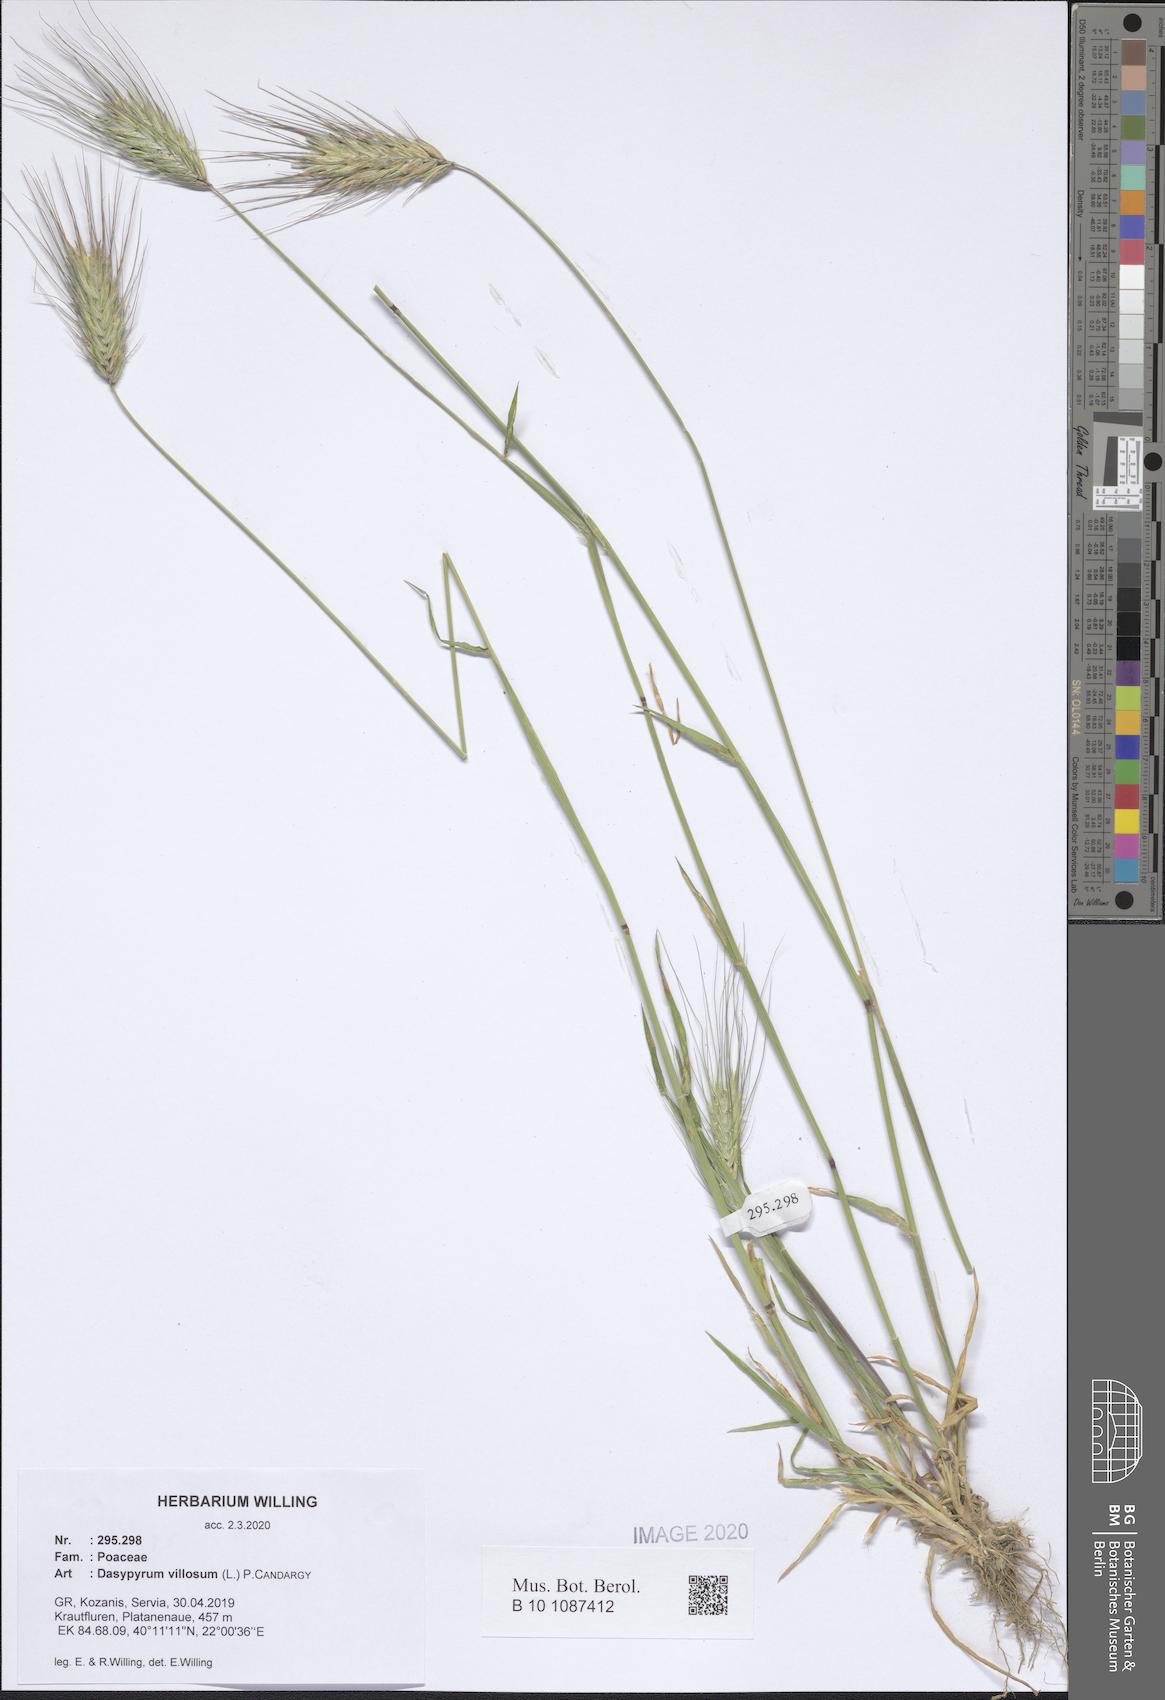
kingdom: Plantae
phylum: Tracheophyta
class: Liliopsida
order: Poales
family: Poaceae
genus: Dasypyrum
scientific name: Dasypyrum villosum
